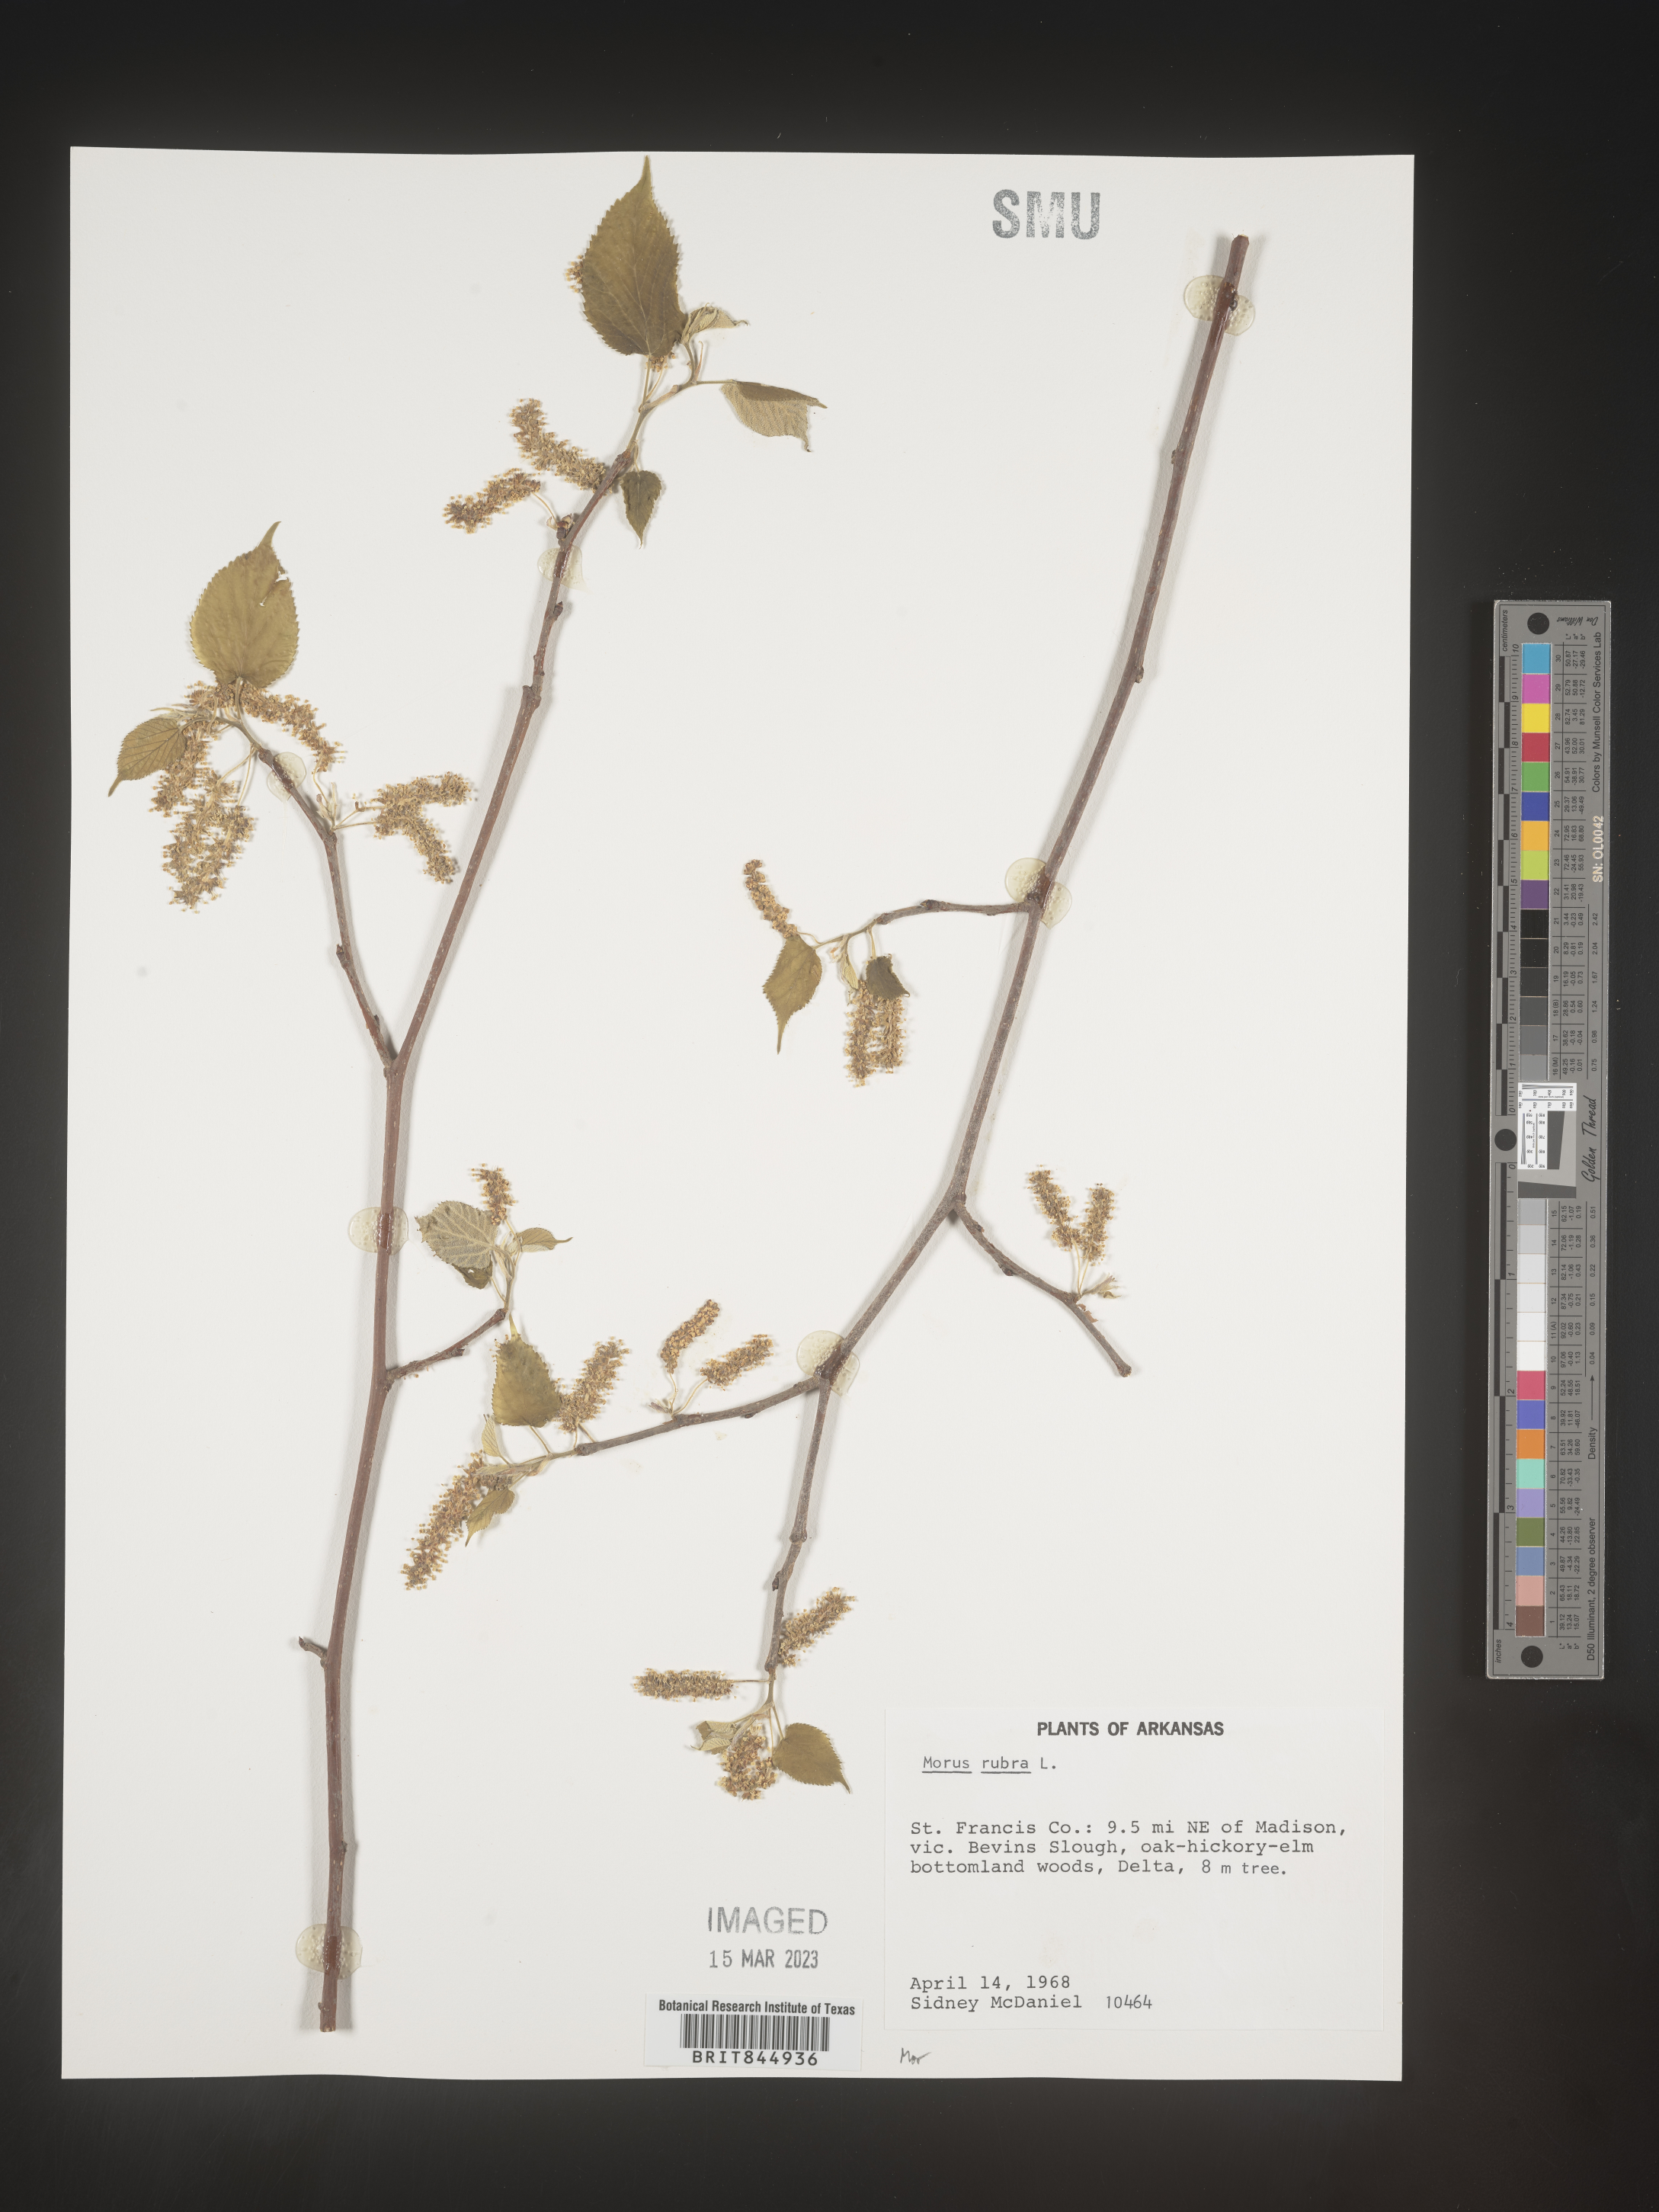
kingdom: Plantae
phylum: Tracheophyta
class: Magnoliopsida
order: Rosales
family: Moraceae
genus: Morus
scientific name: Morus rubra
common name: Red mulberry
